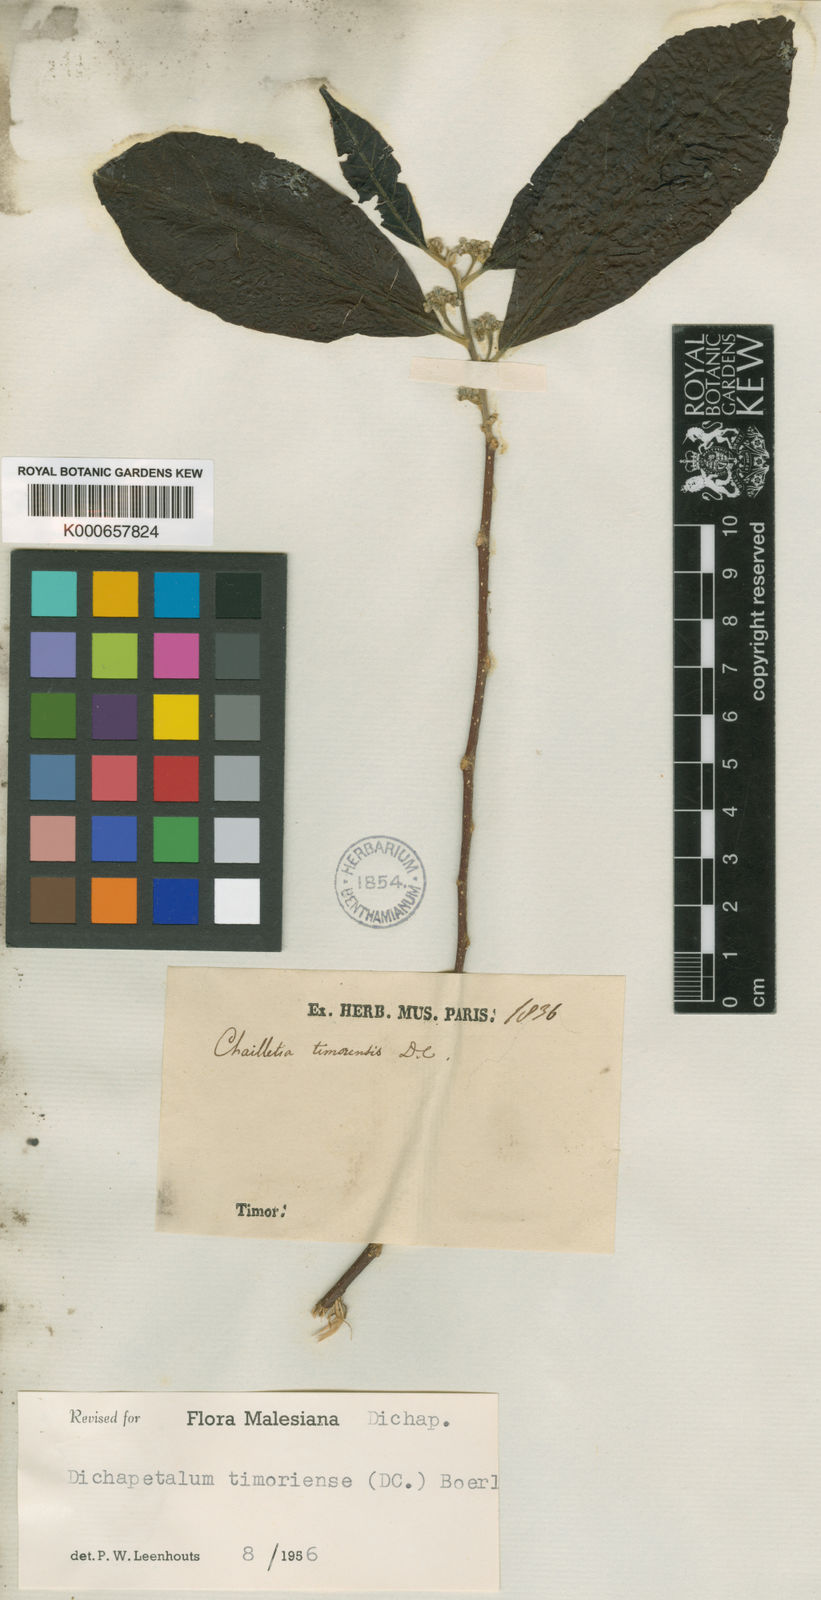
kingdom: Plantae
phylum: Tracheophyta
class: Magnoliopsida
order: Malpighiales
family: Dichapetalaceae
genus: Dichapetalum
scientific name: Dichapetalum timoriense
